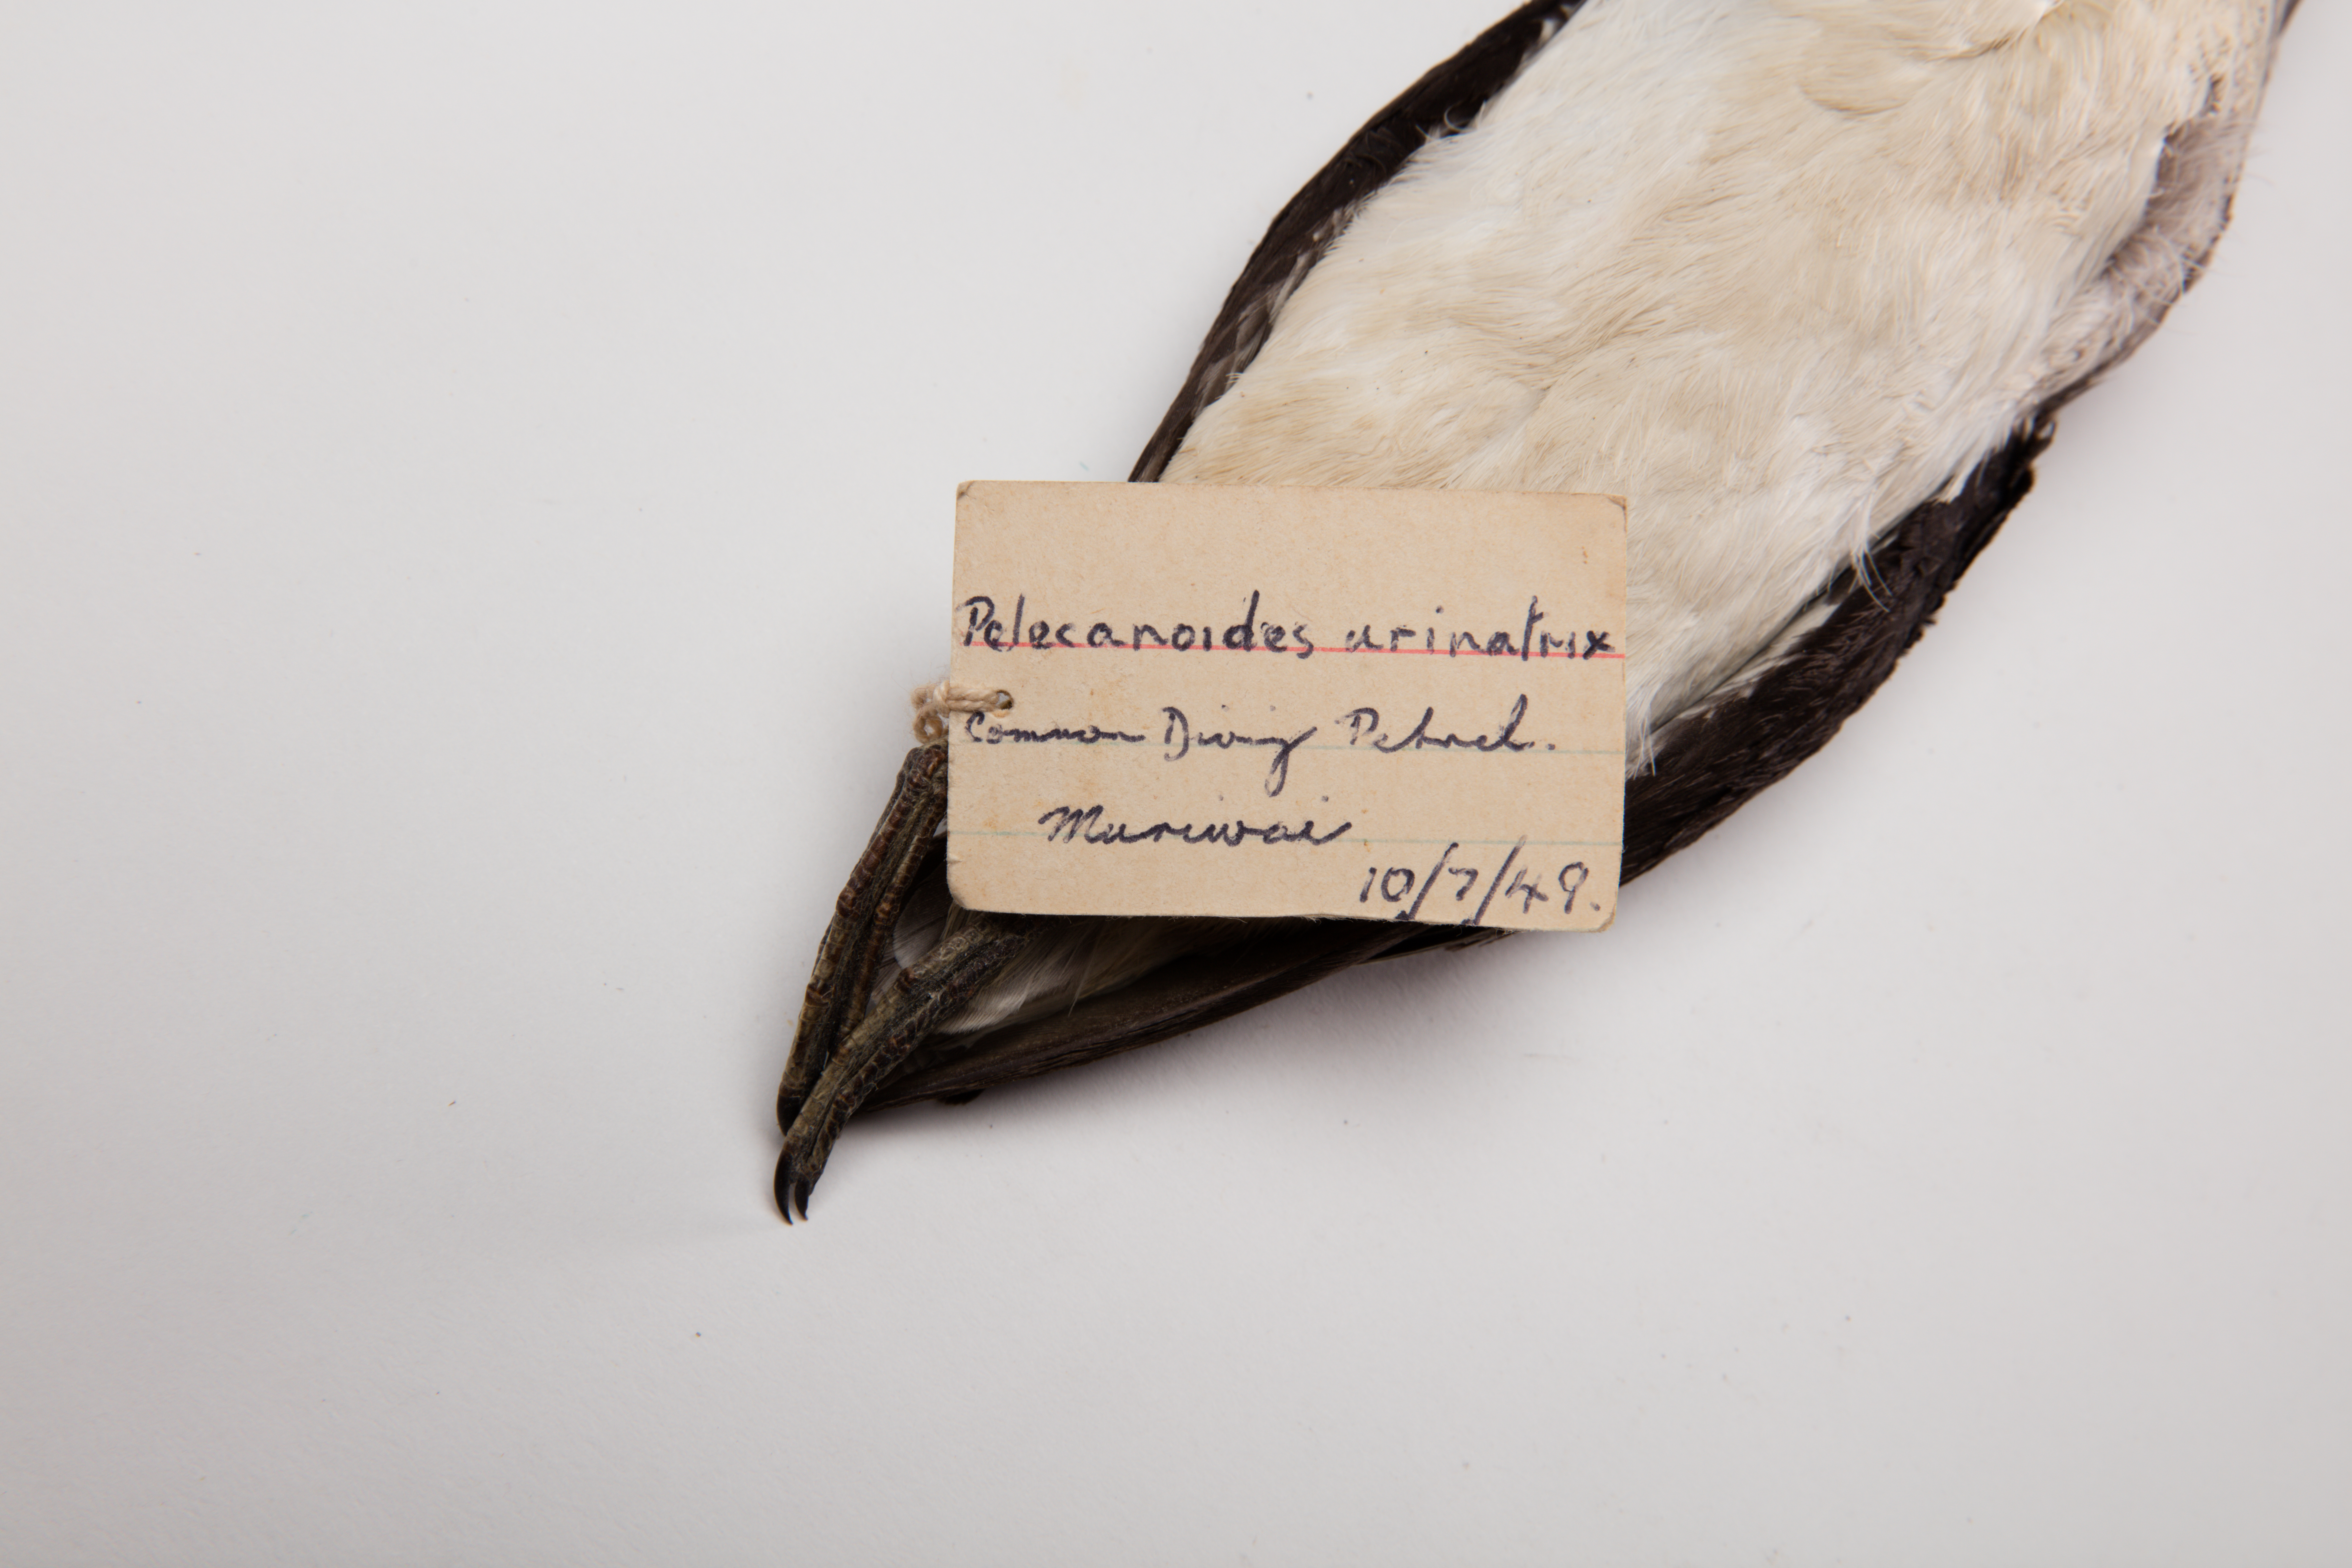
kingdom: Animalia
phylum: Chordata
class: Aves
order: Procellariiformes
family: Pelecanoididae
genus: Pelecanoides
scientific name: Pelecanoides urinatrix
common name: Common diving-petrel
